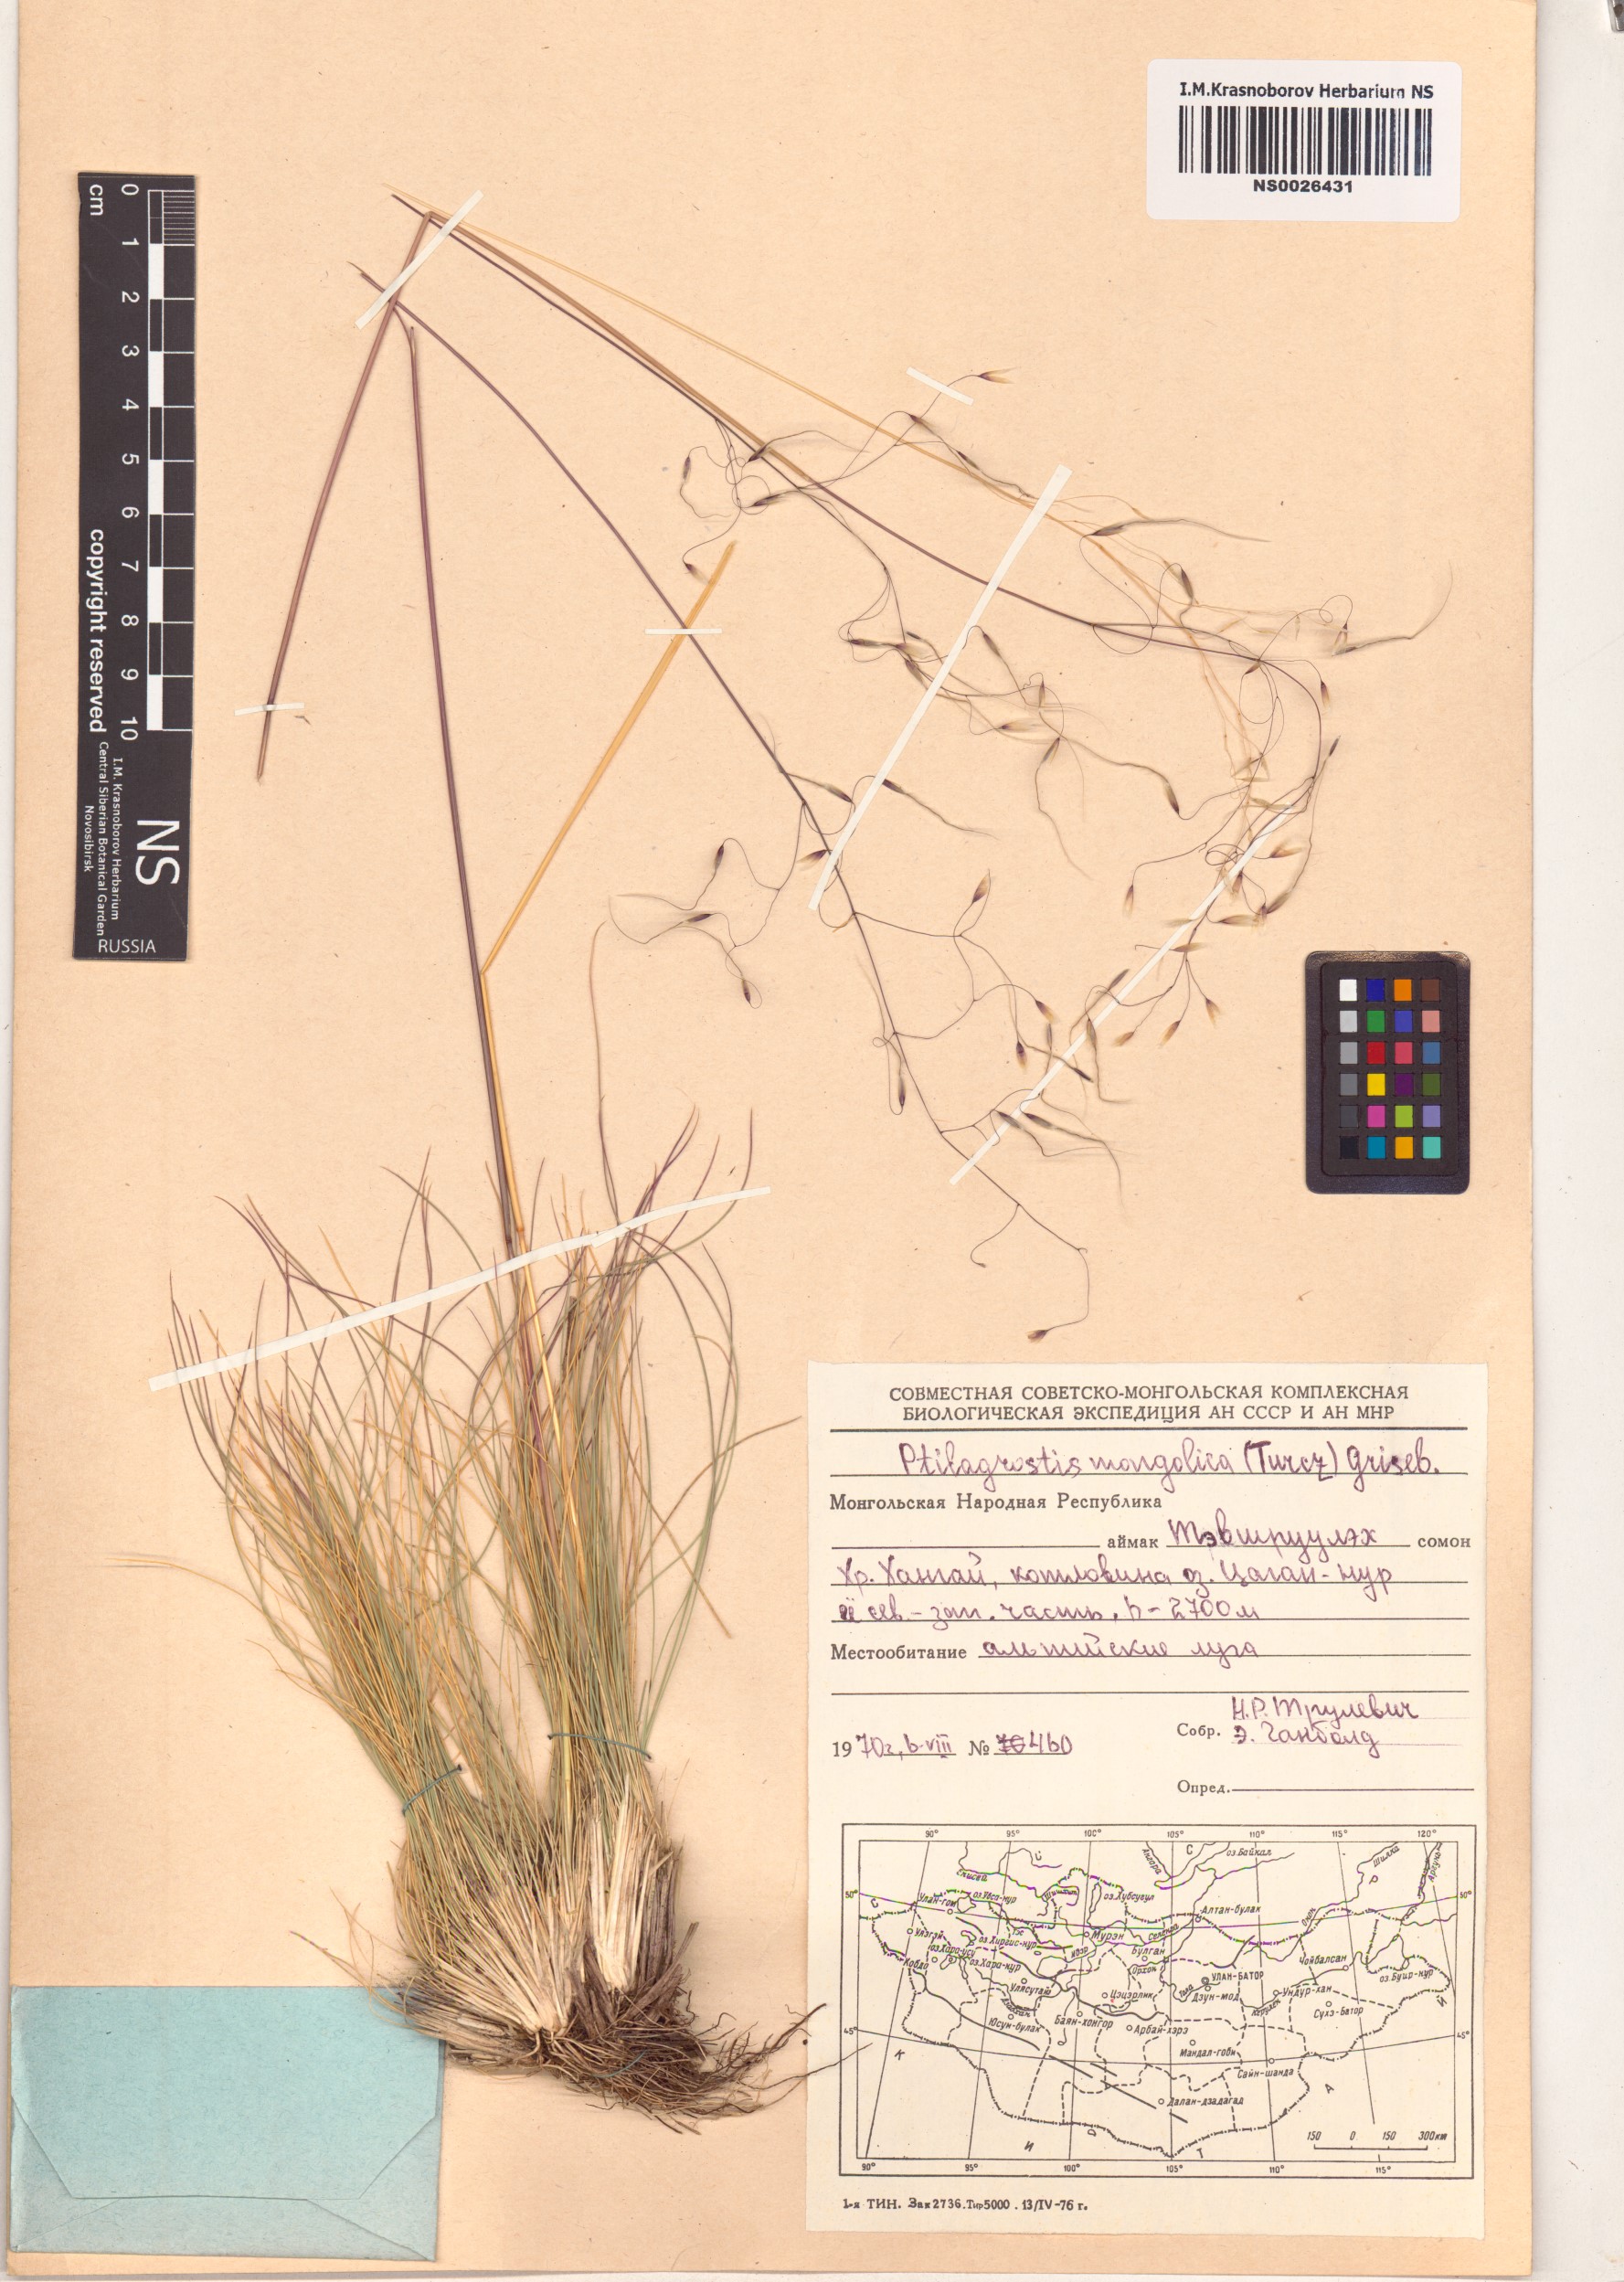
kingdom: Plantae
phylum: Tracheophyta
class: Liliopsida
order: Poales
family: Poaceae
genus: Ptilagrostis
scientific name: Ptilagrostis mongholica
